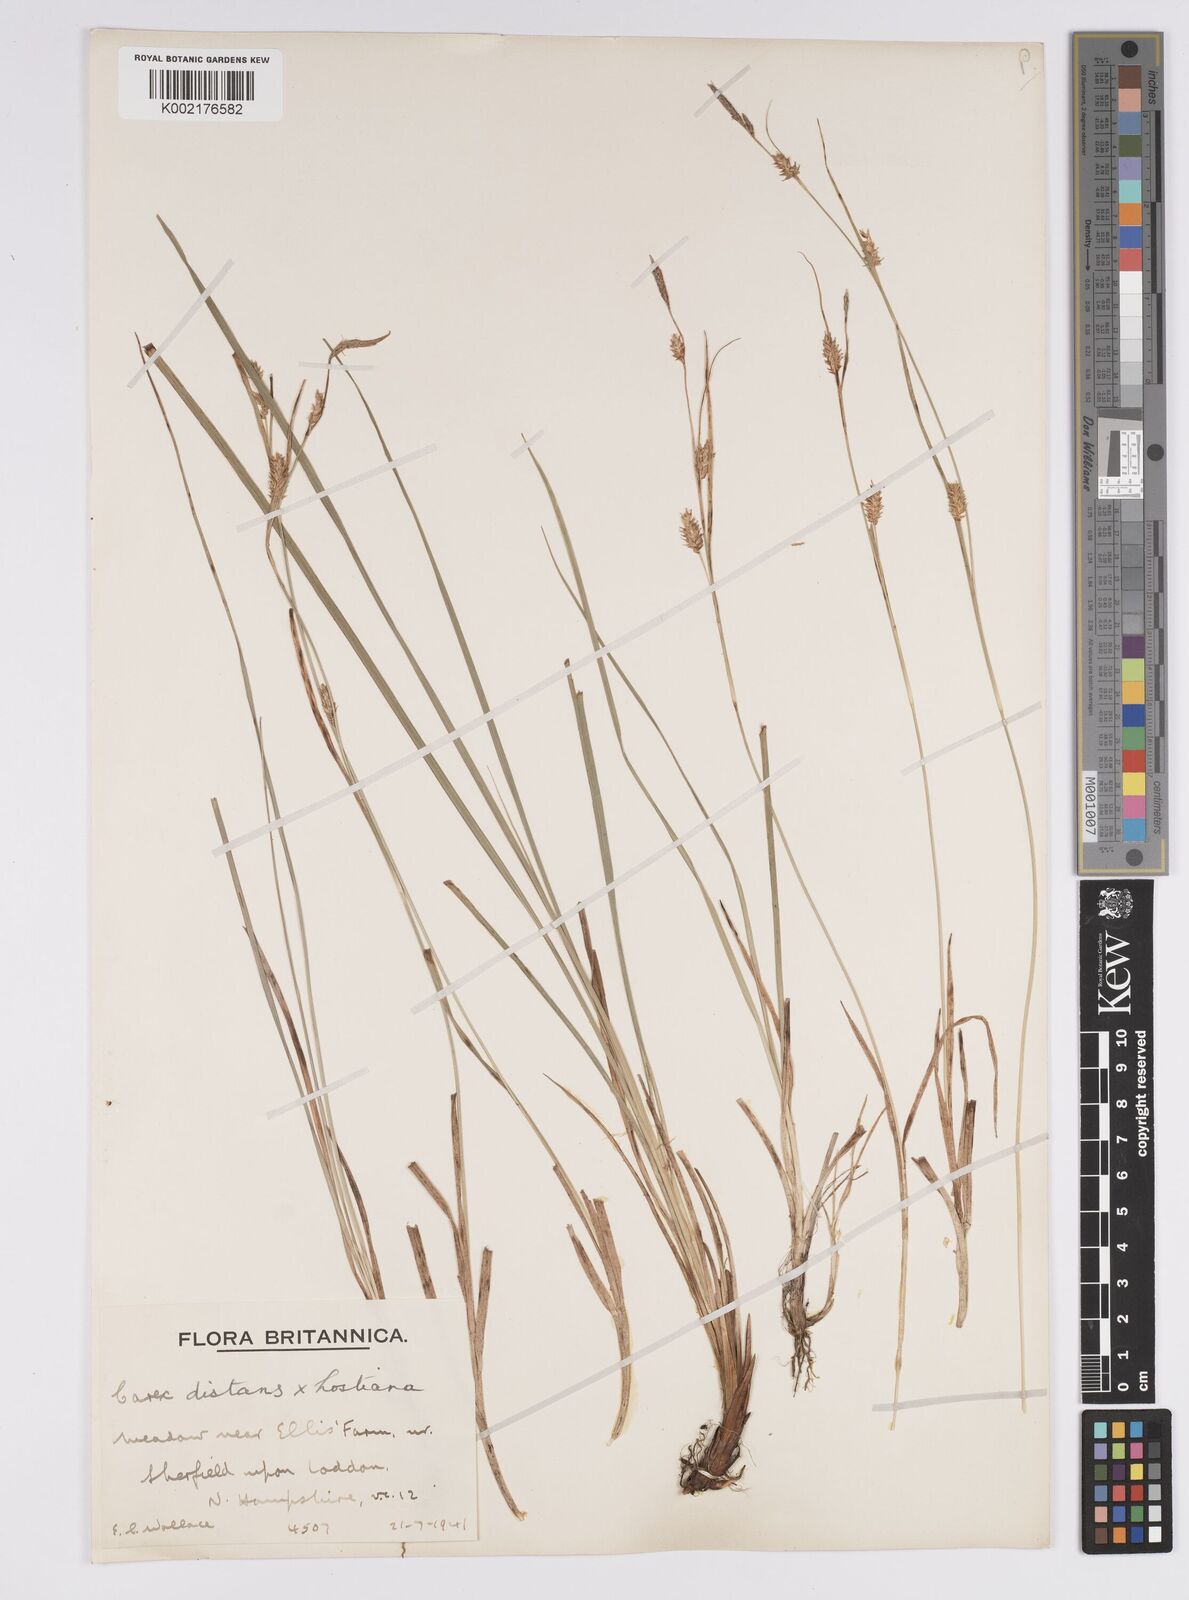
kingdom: Plantae
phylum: Tracheophyta
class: Liliopsida
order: Poales
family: Cyperaceae
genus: Carex
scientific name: Carex distans
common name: Distant sedge
